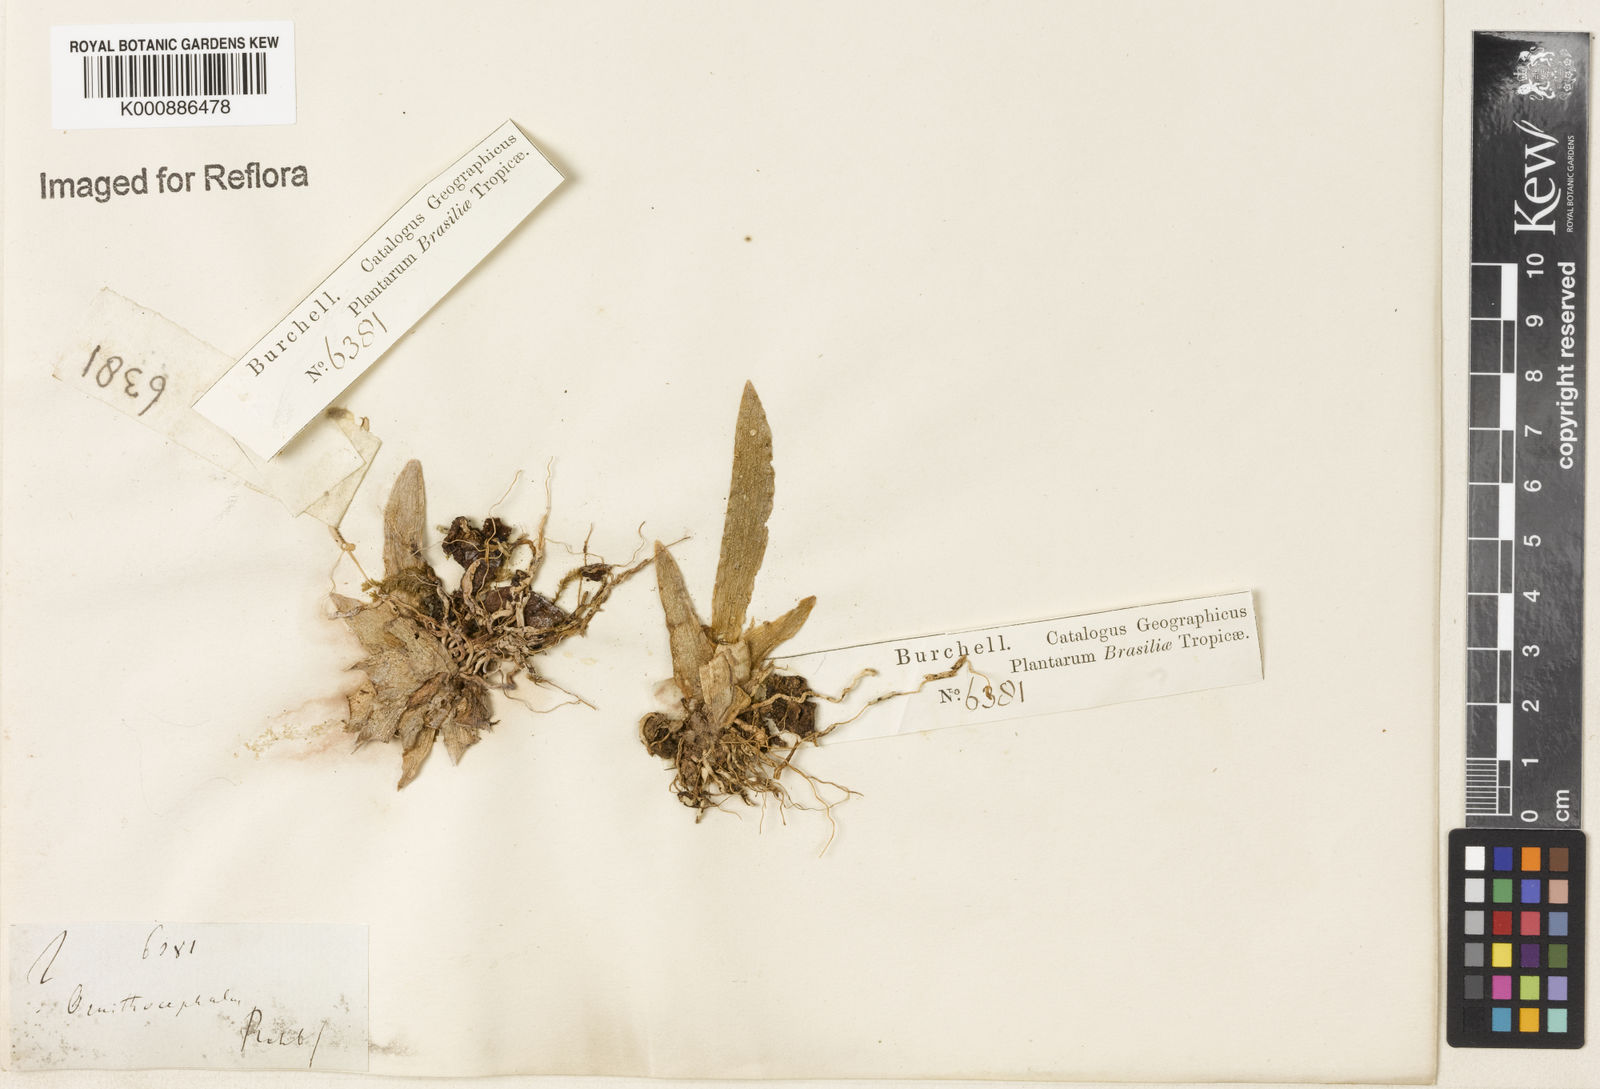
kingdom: Plantae
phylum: Tracheophyta
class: Liliopsida
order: Asparagales
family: Orchidaceae
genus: Ornithocephalus
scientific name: Ornithocephalus
